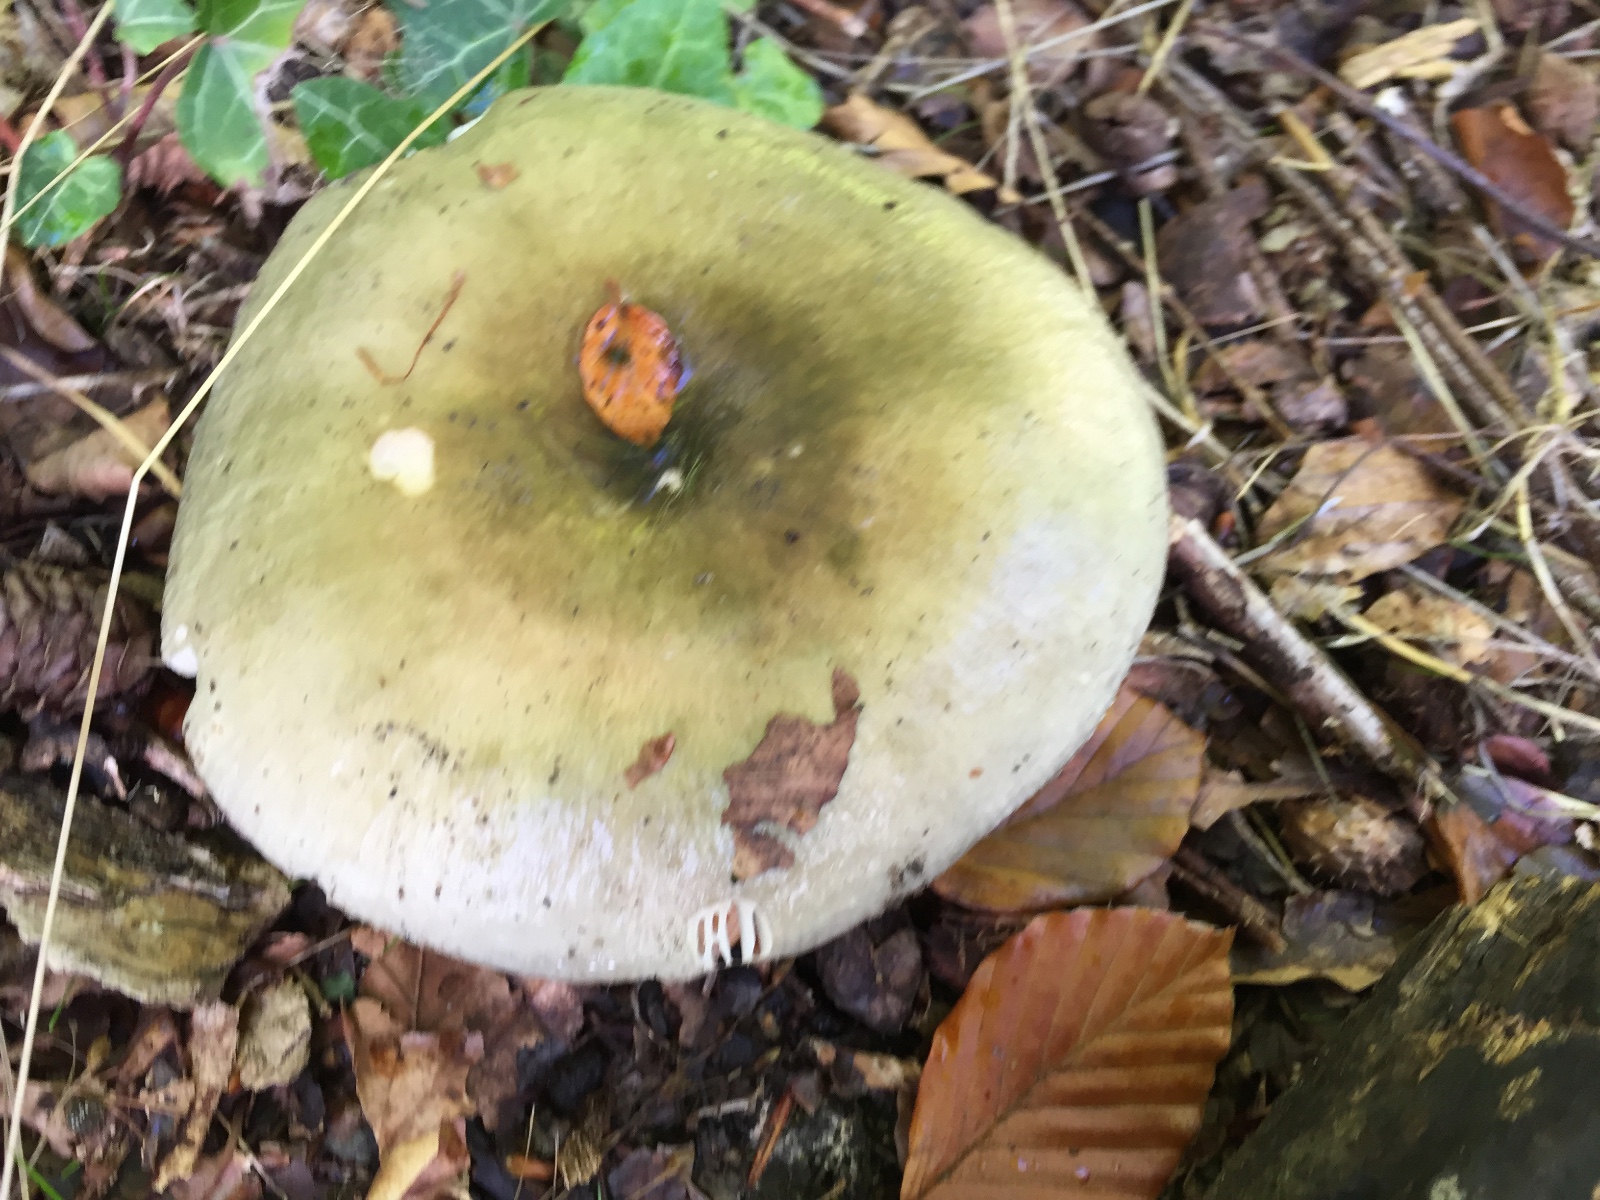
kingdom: Fungi
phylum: Basidiomycota
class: Agaricomycetes
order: Russulales
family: Russulaceae
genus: Russula
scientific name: Russula aeruginea
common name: græsgrøn skørhat
